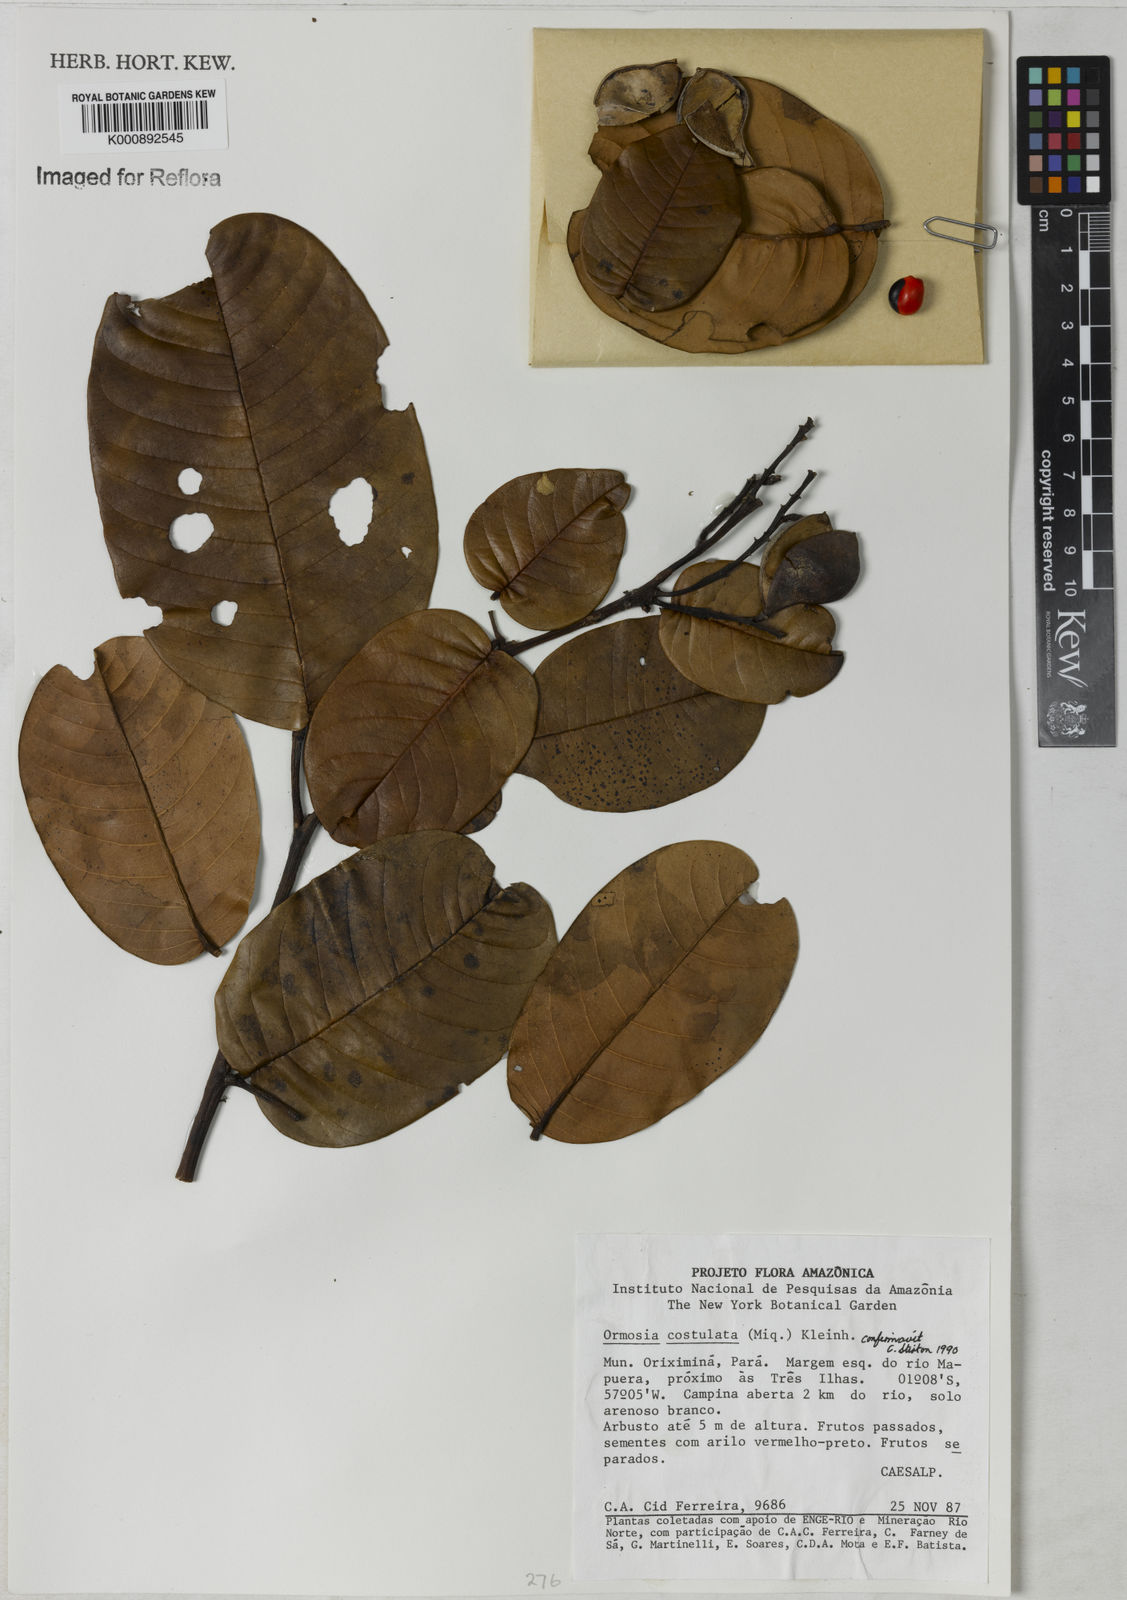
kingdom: Plantae
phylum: Tracheophyta
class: Magnoliopsida
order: Fabales
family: Fabaceae
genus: Ormosia
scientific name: Ormosia costulata
